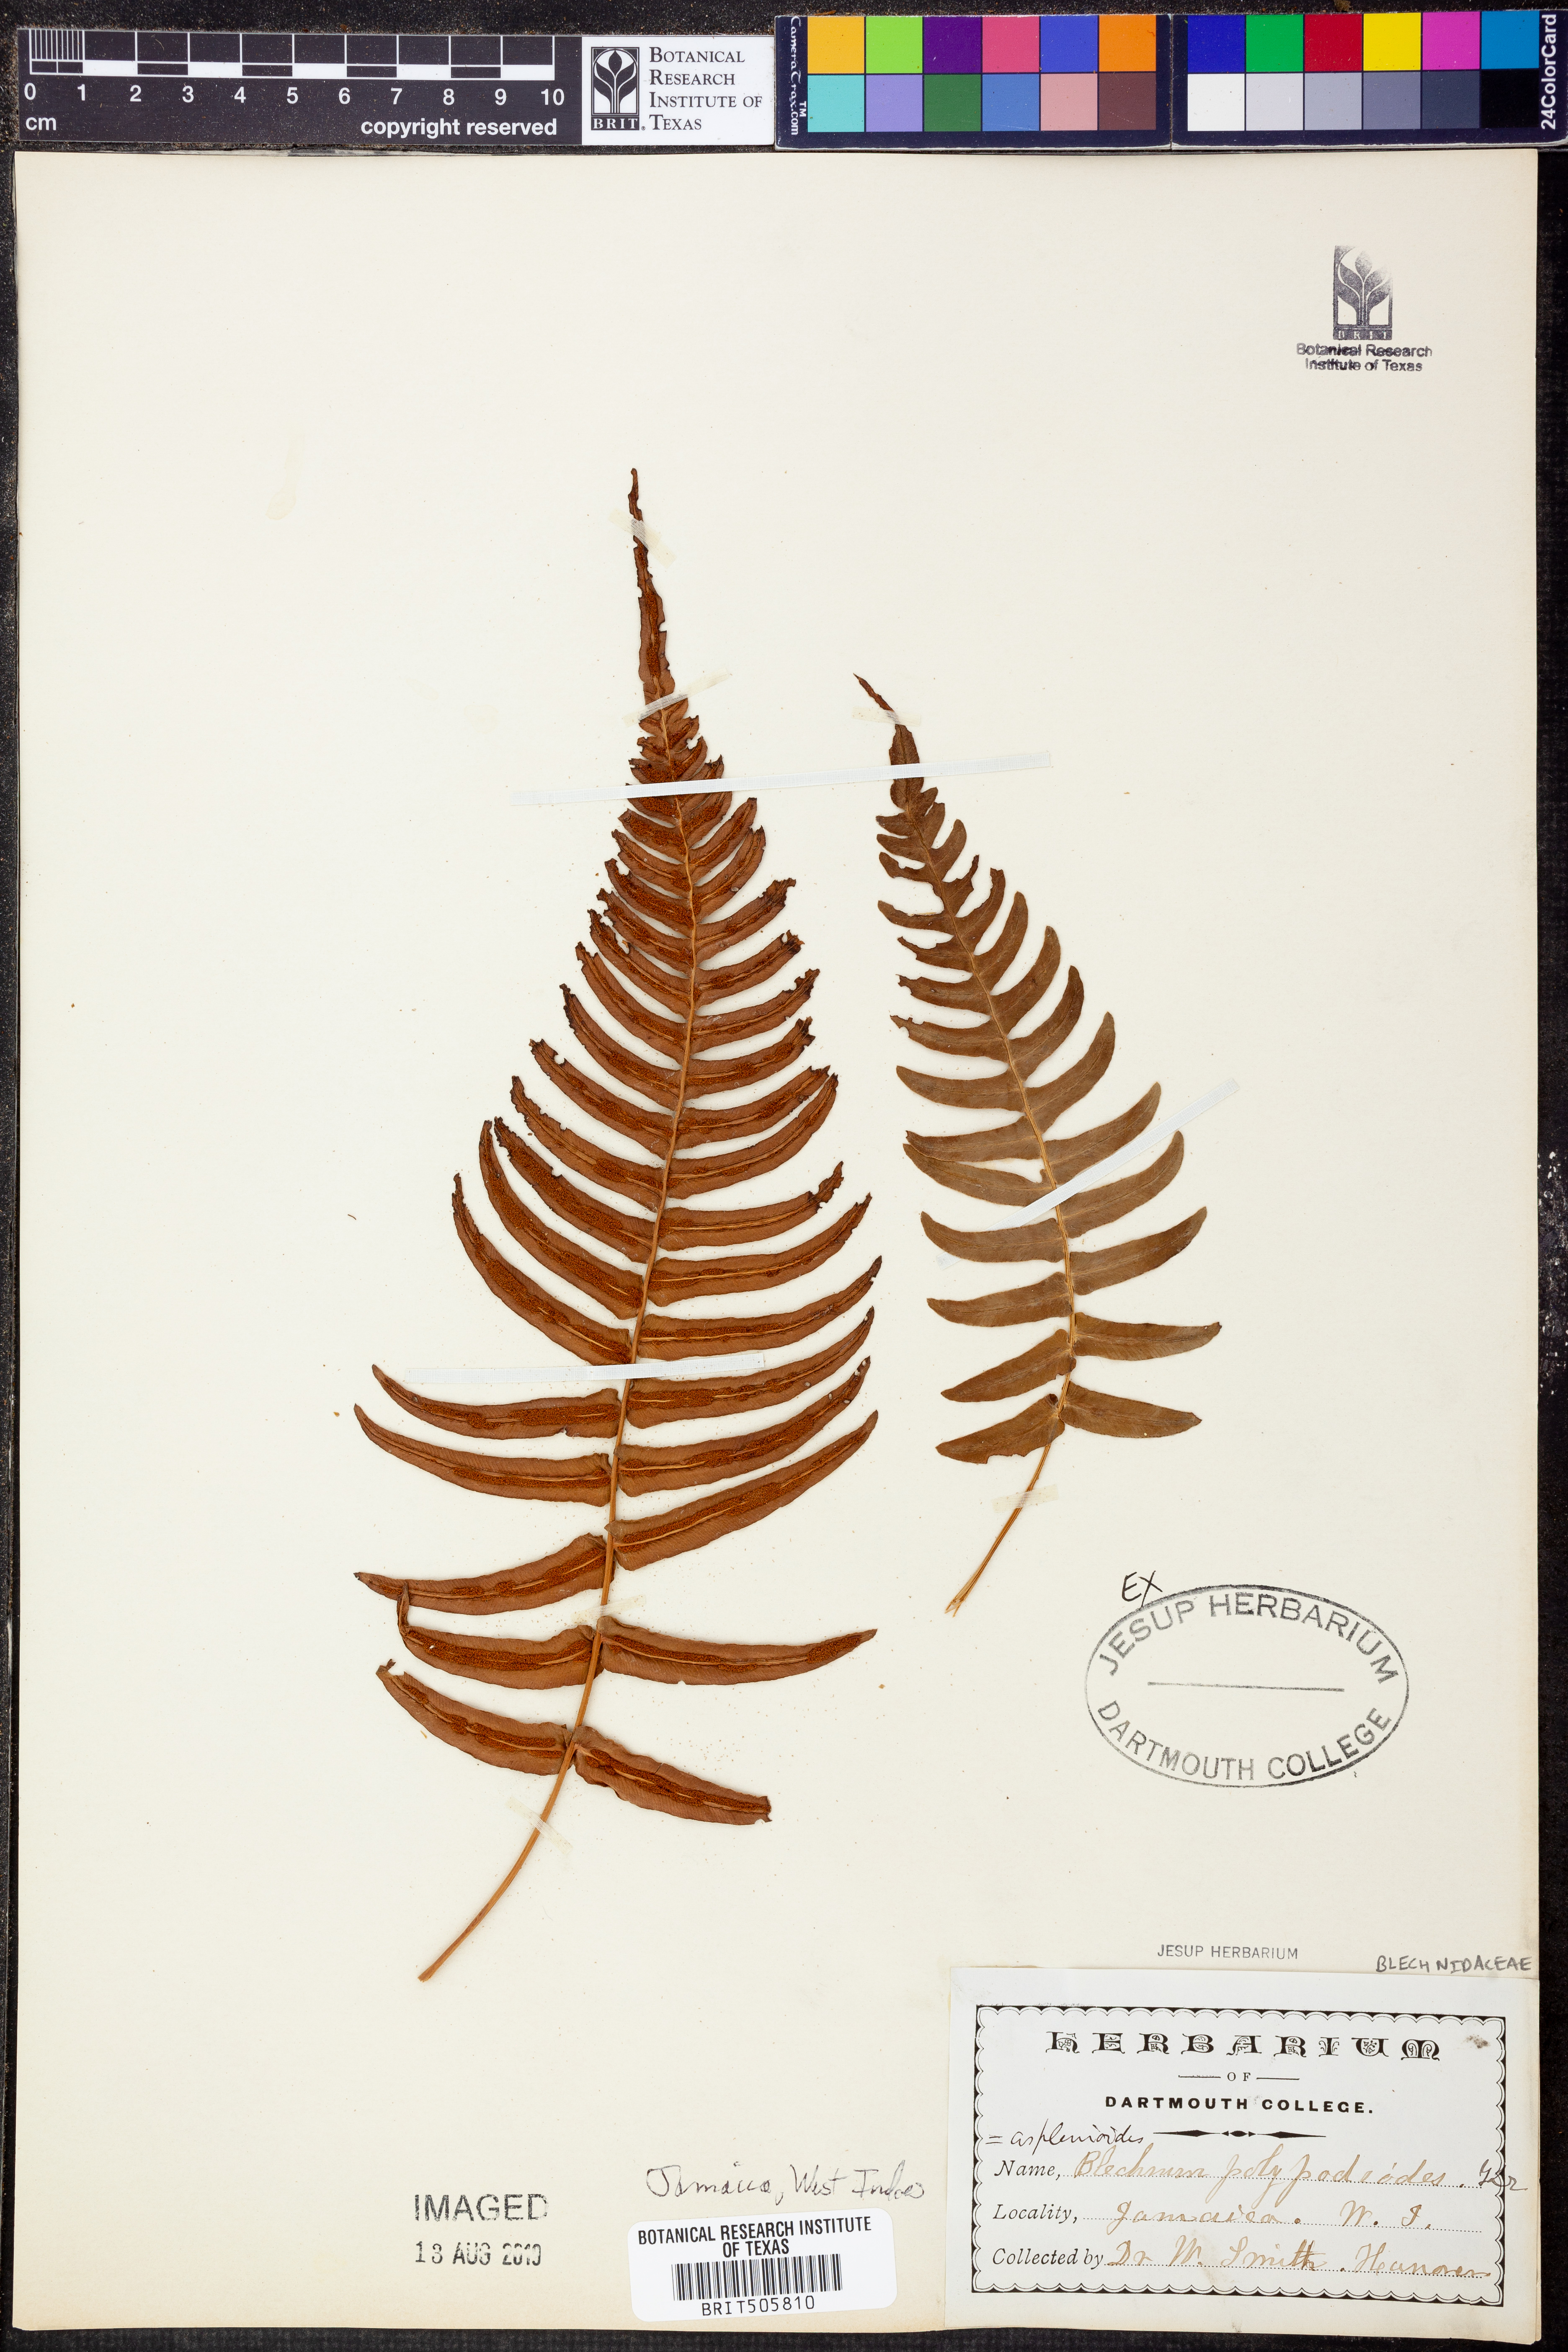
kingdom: Plantae
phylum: Tracheophyta
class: Polypodiopsida
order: Polypodiales
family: Blechnaceae
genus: Blechnum
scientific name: Blechnum polypodioides
